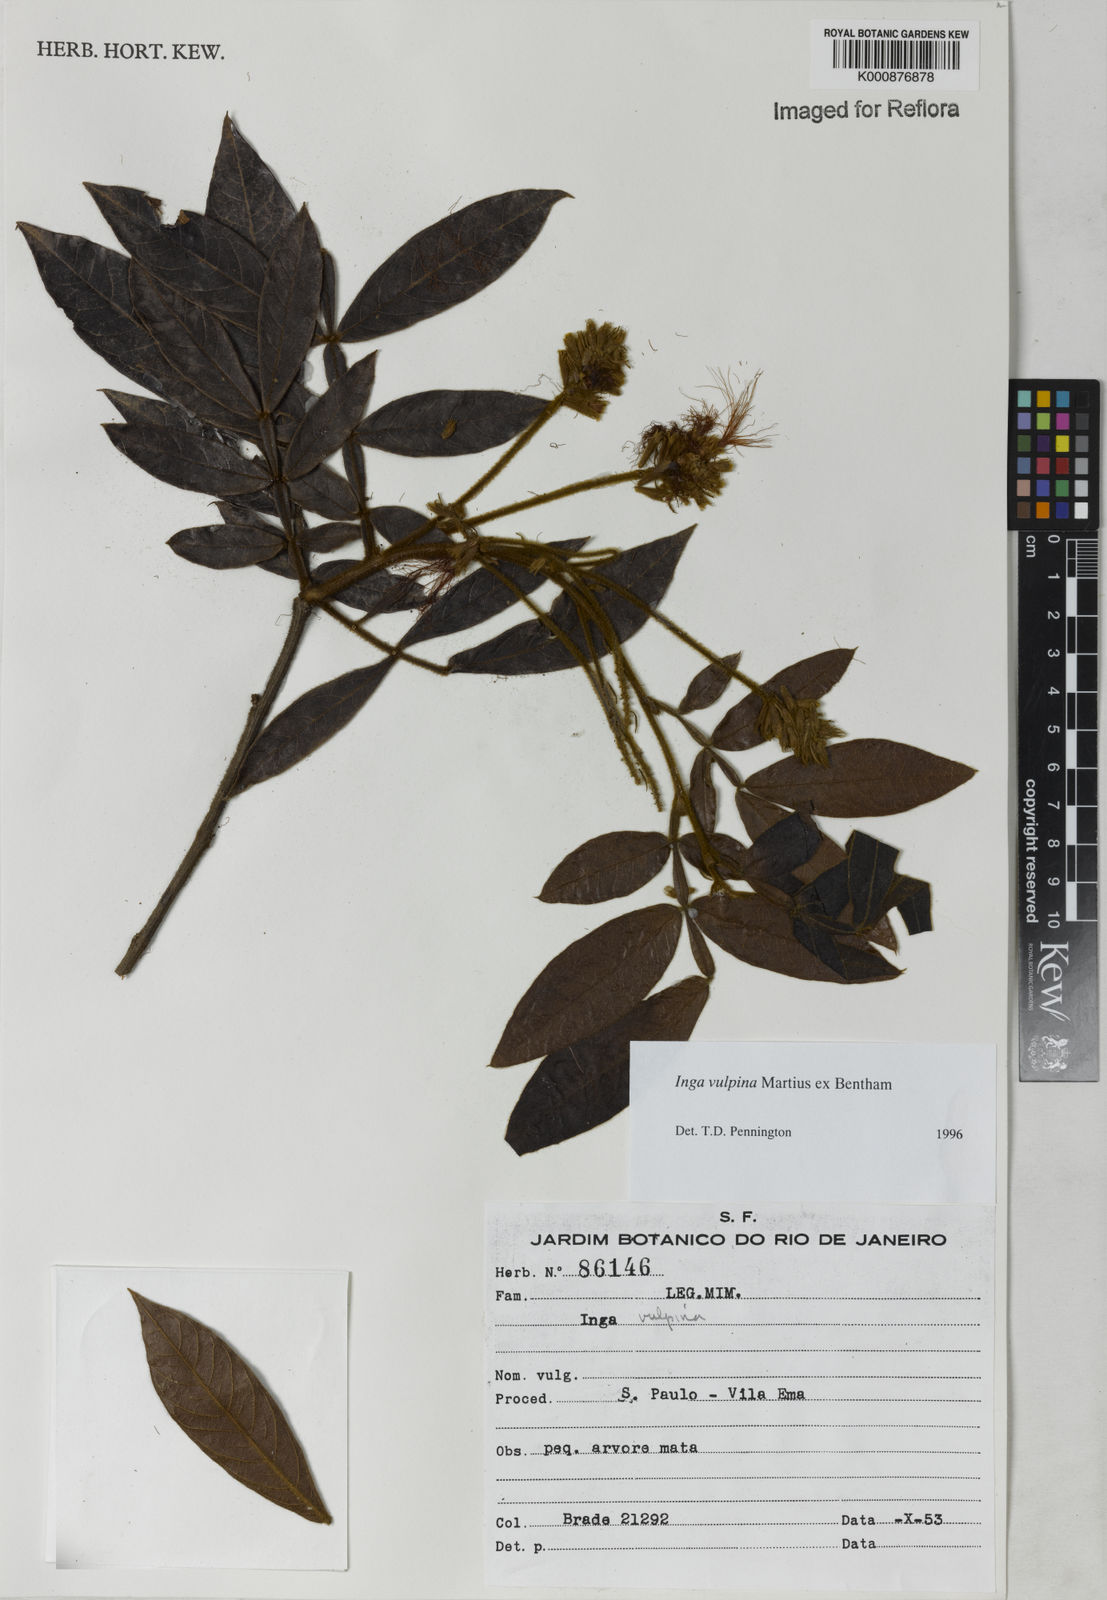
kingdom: Plantae
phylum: Tracheophyta
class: Magnoliopsida
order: Fabales
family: Fabaceae
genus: Inga
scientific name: Inga vulpina
